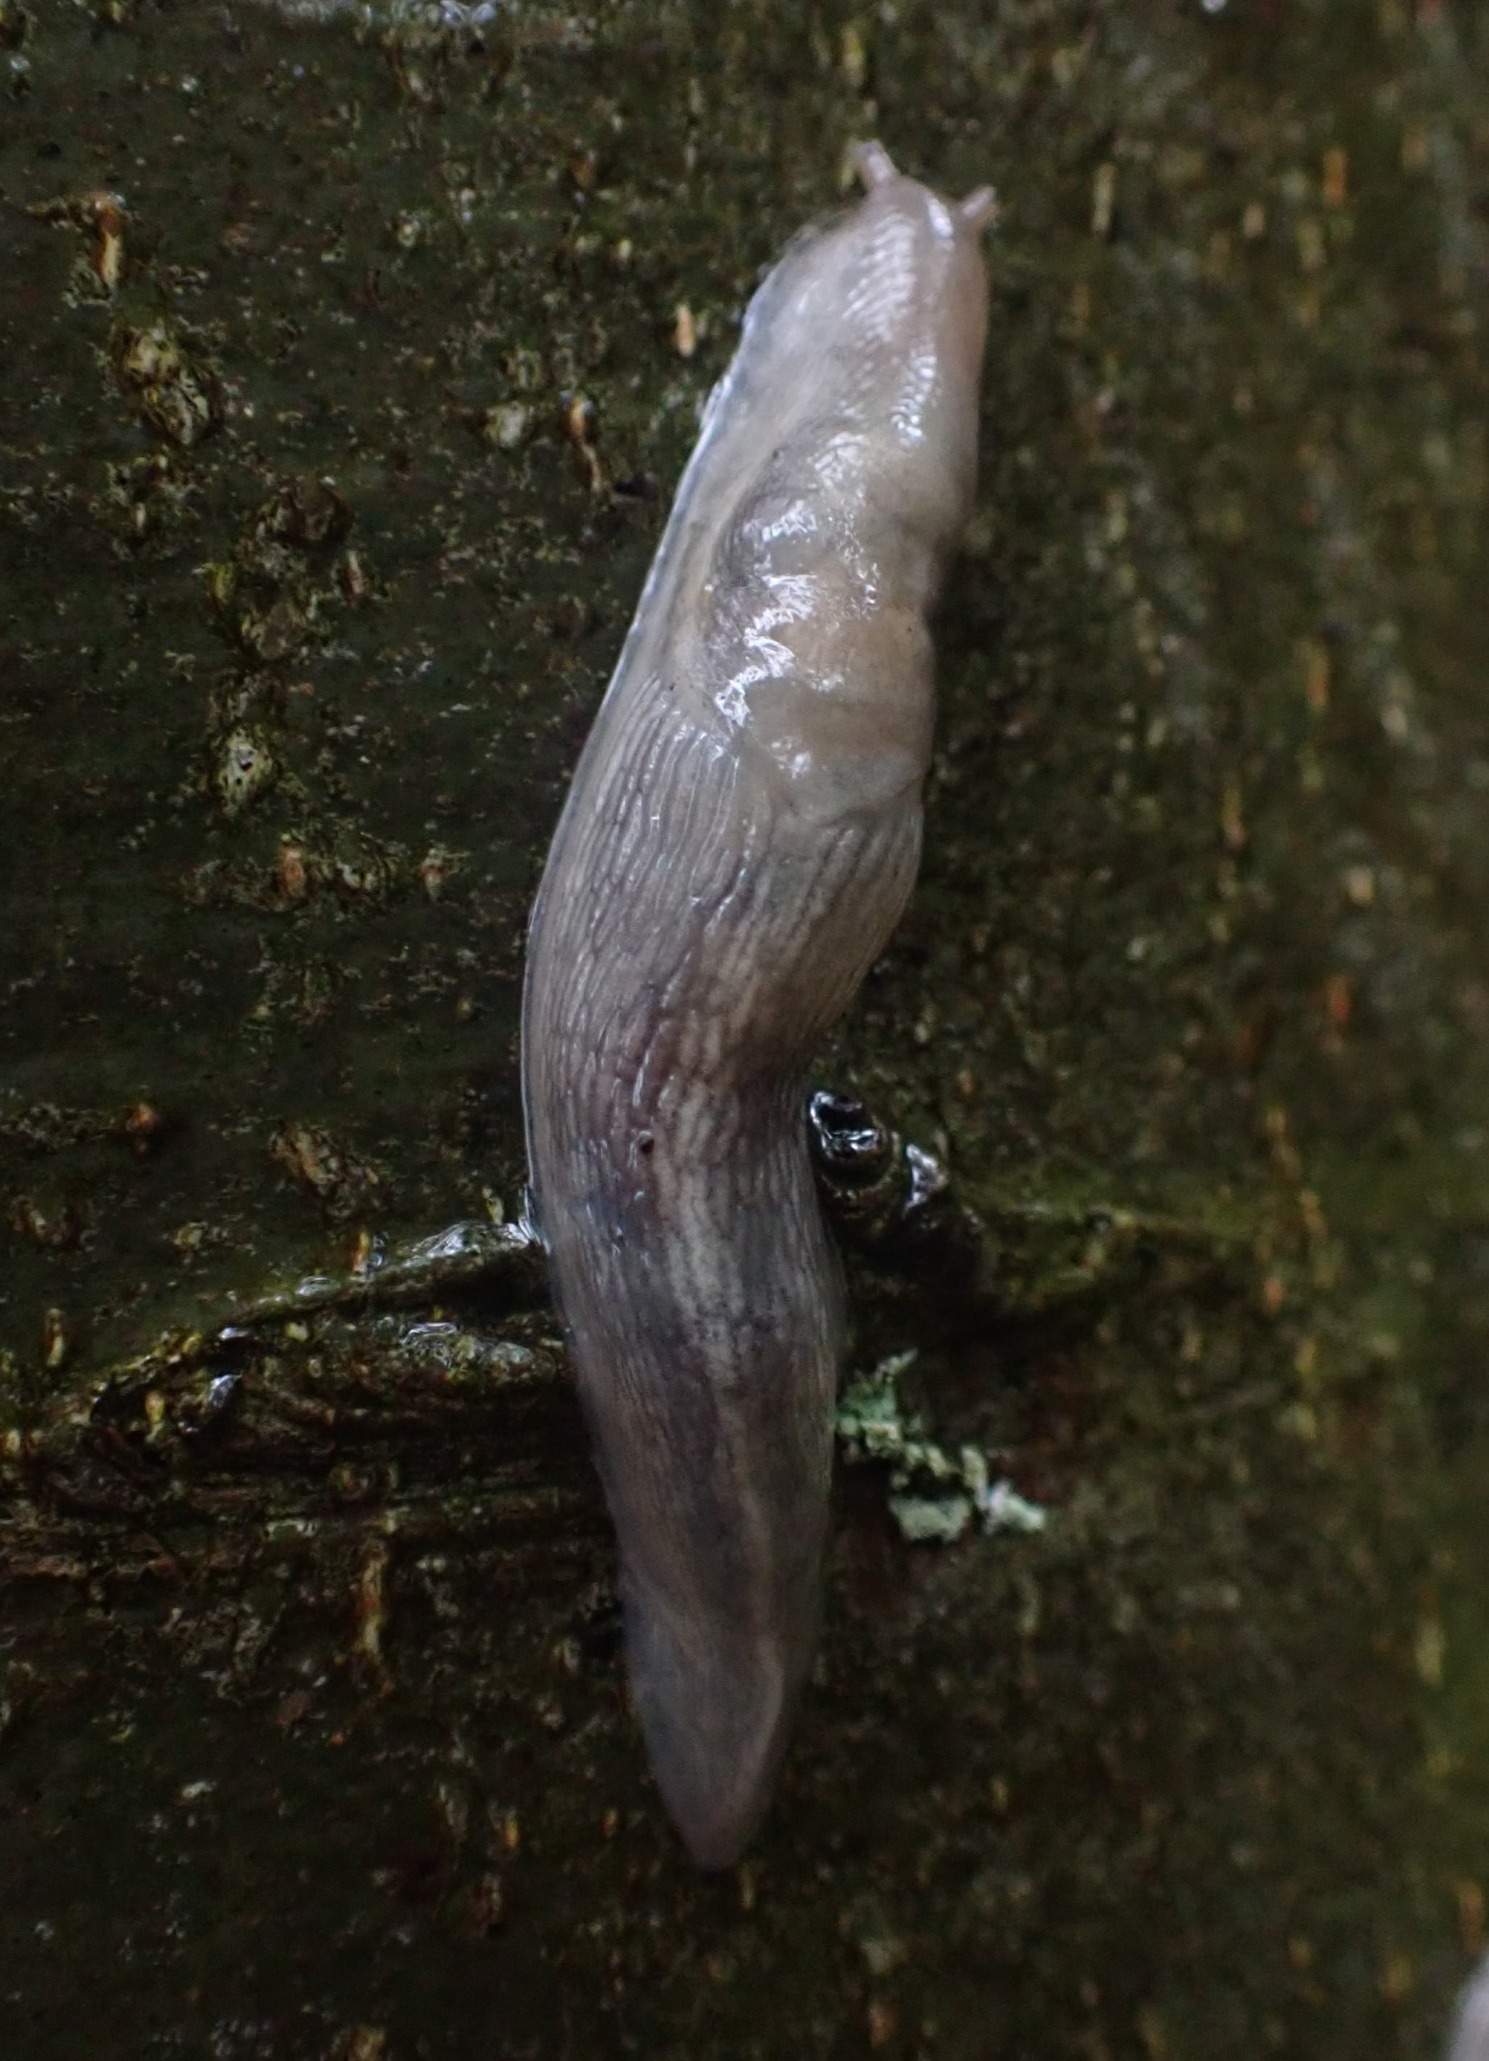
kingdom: Animalia
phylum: Mollusca
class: Gastropoda
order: Stylommatophora
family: Limacidae
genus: Lehmannia
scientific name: Lehmannia marginata
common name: Bøgesnegl
